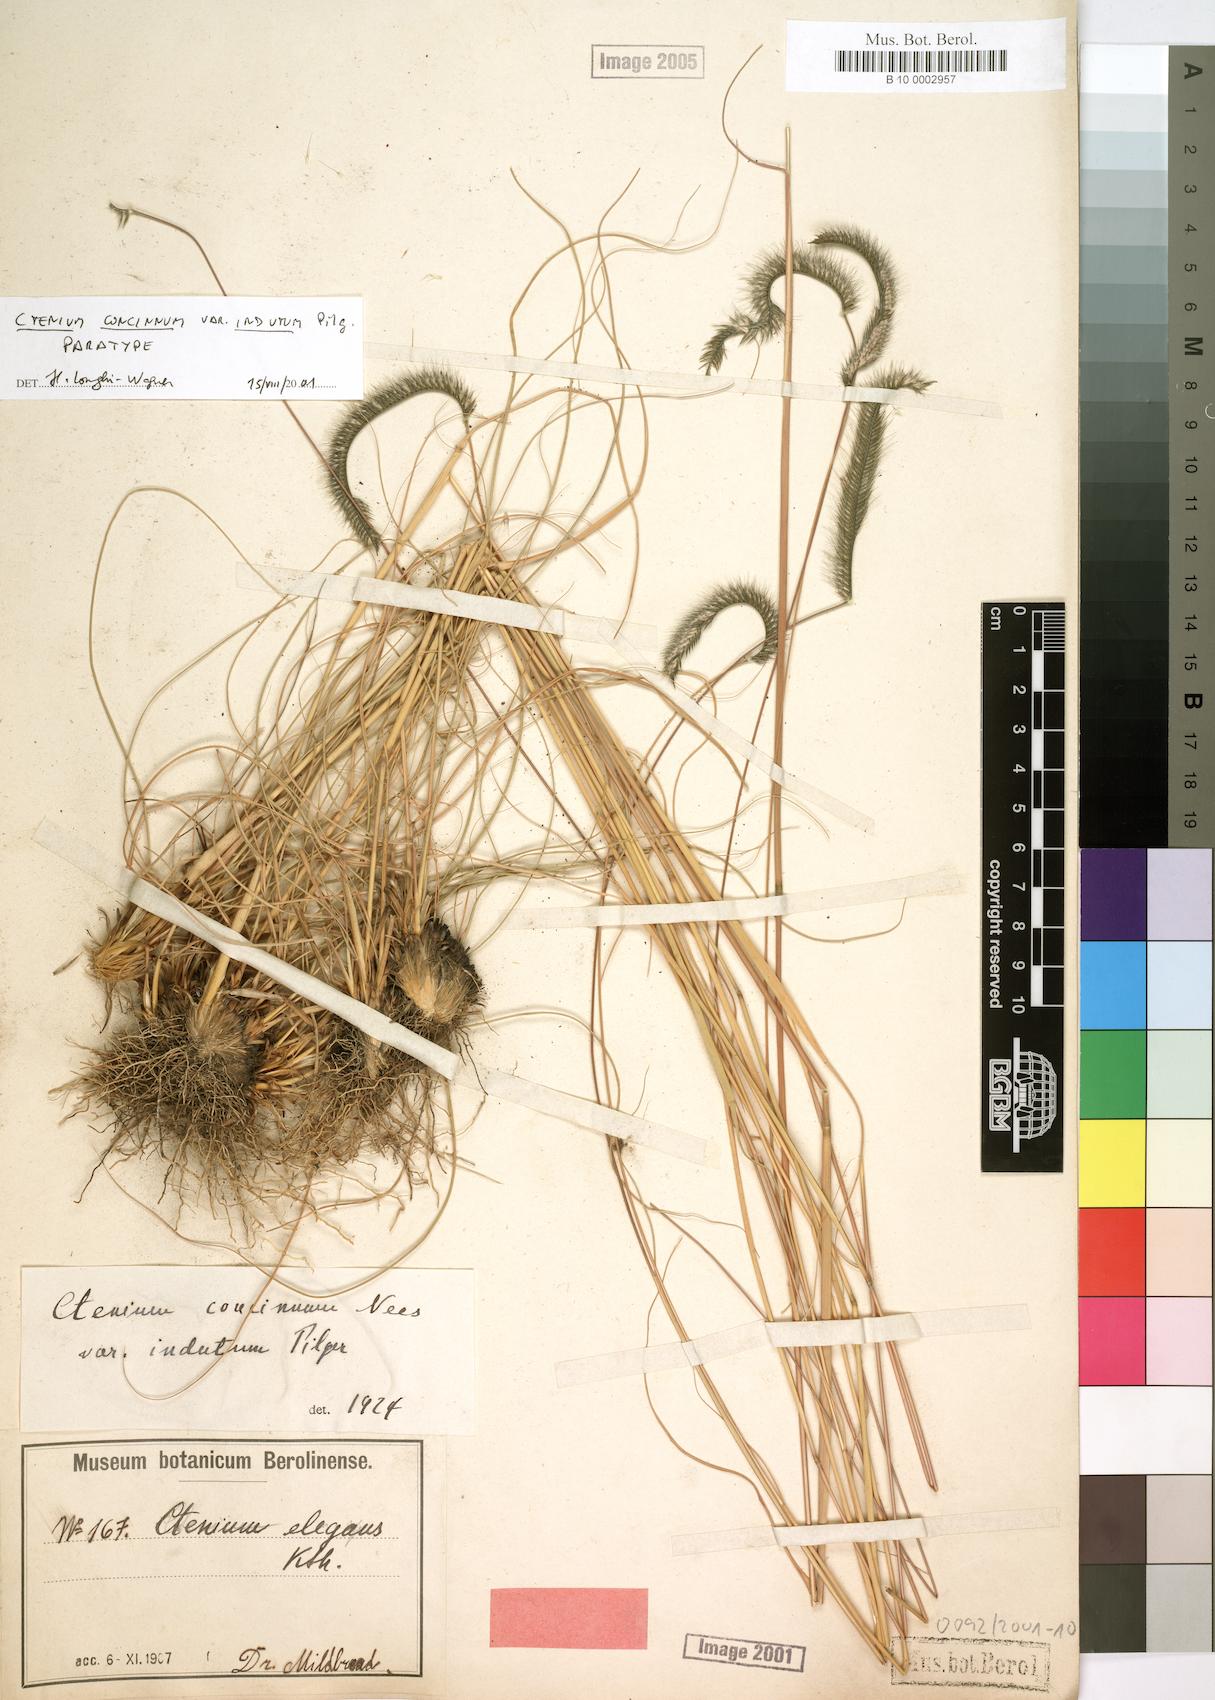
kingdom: Plantae
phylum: Tracheophyta
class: Liliopsida
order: Poales
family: Poaceae
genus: Ctenium
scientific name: Ctenium concinnum
